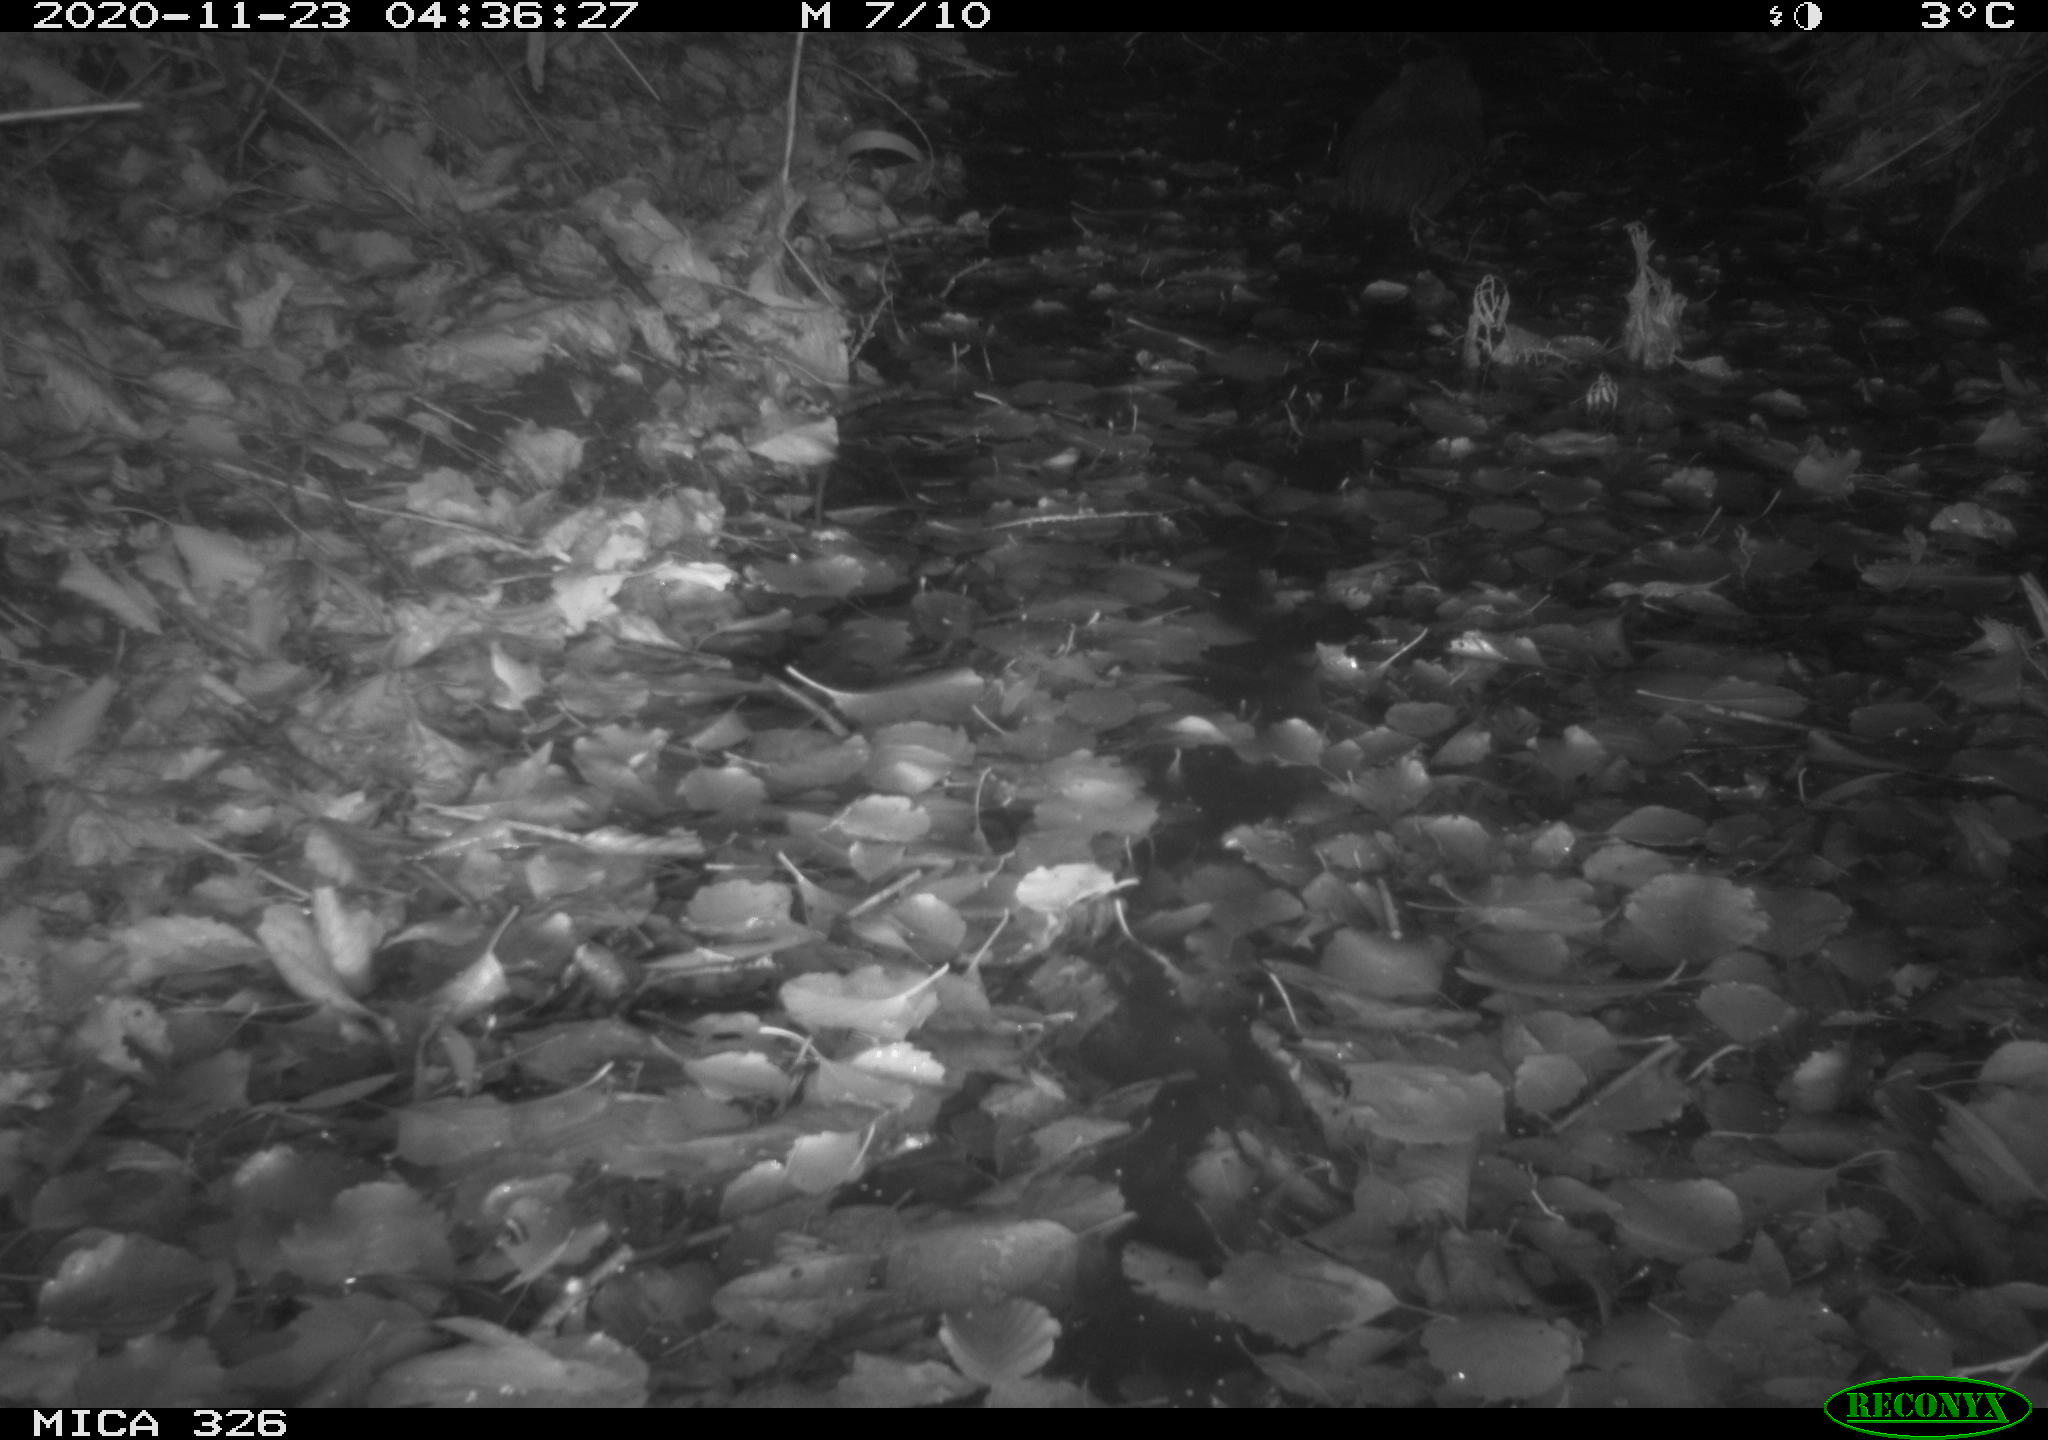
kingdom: Animalia
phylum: Chordata
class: Mammalia
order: Rodentia
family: Myocastoridae
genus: Myocastor
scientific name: Myocastor coypus
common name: Coypu
